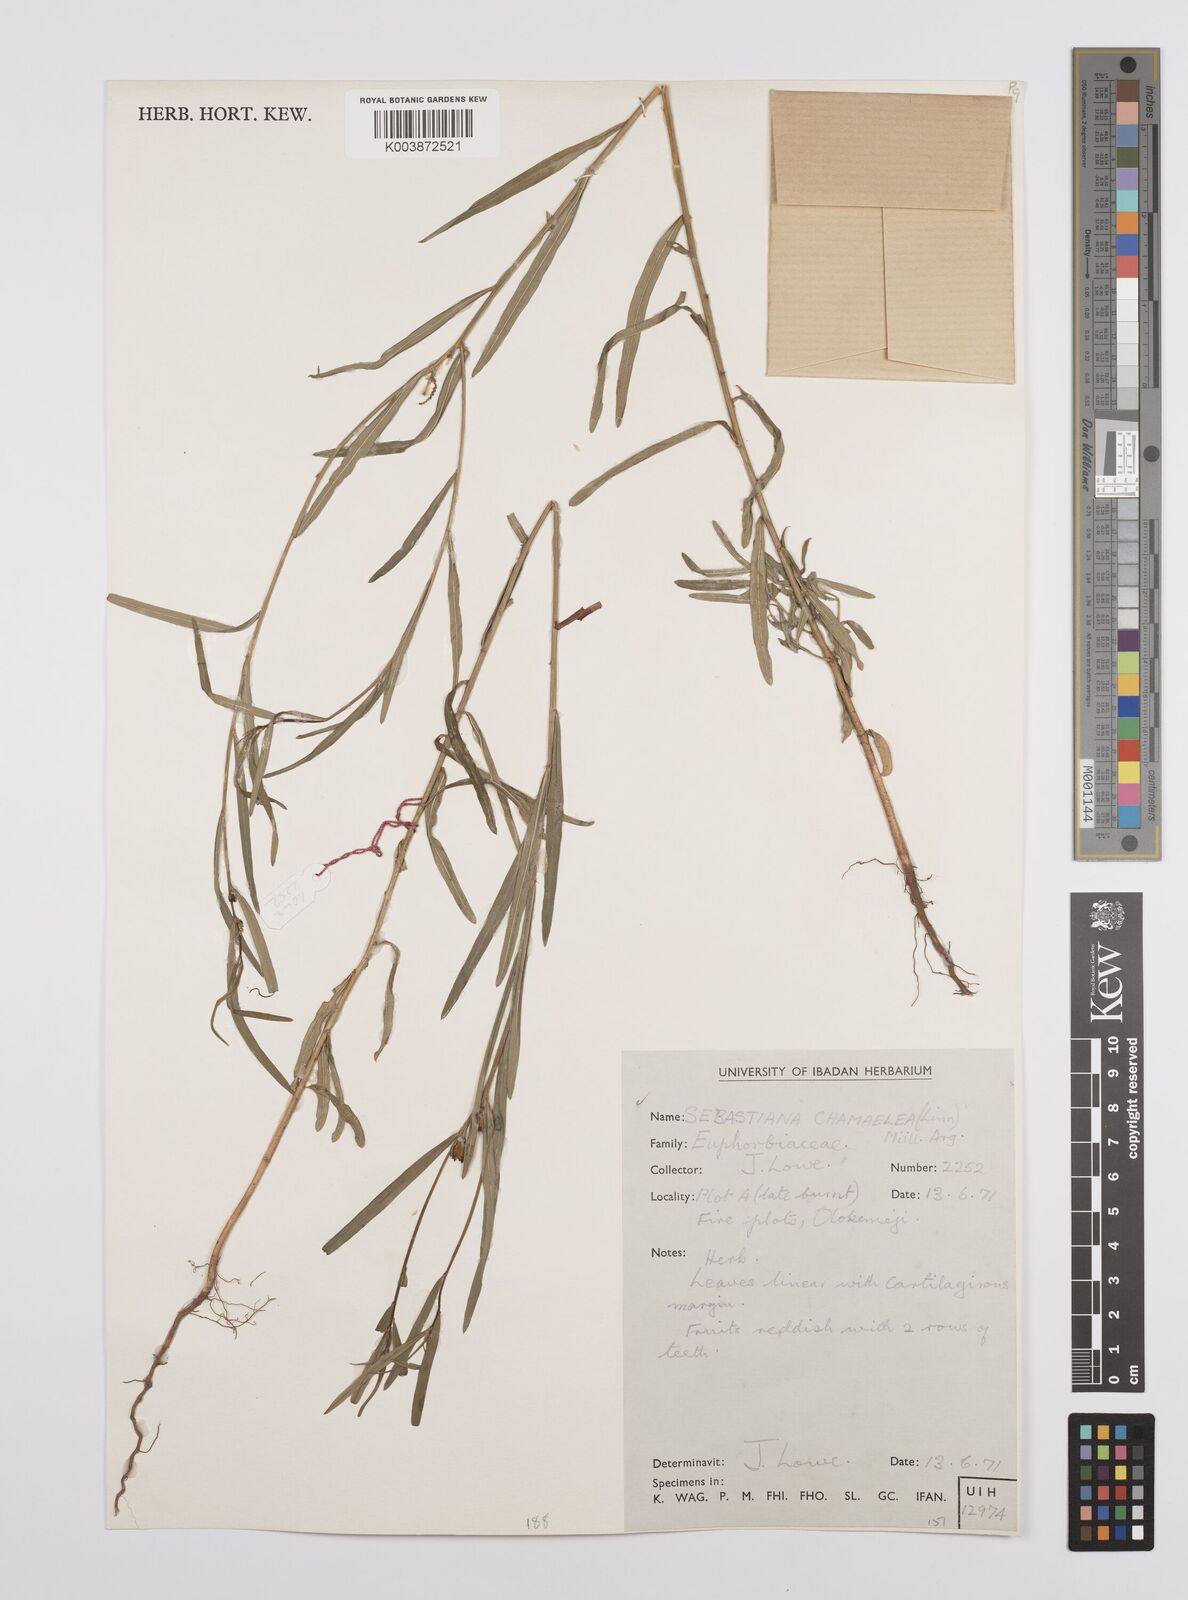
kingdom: Plantae
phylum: Tracheophyta
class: Magnoliopsida
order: Malpighiales
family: Euphorbiaceae
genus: Microstachys
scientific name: Microstachys chamaelea
